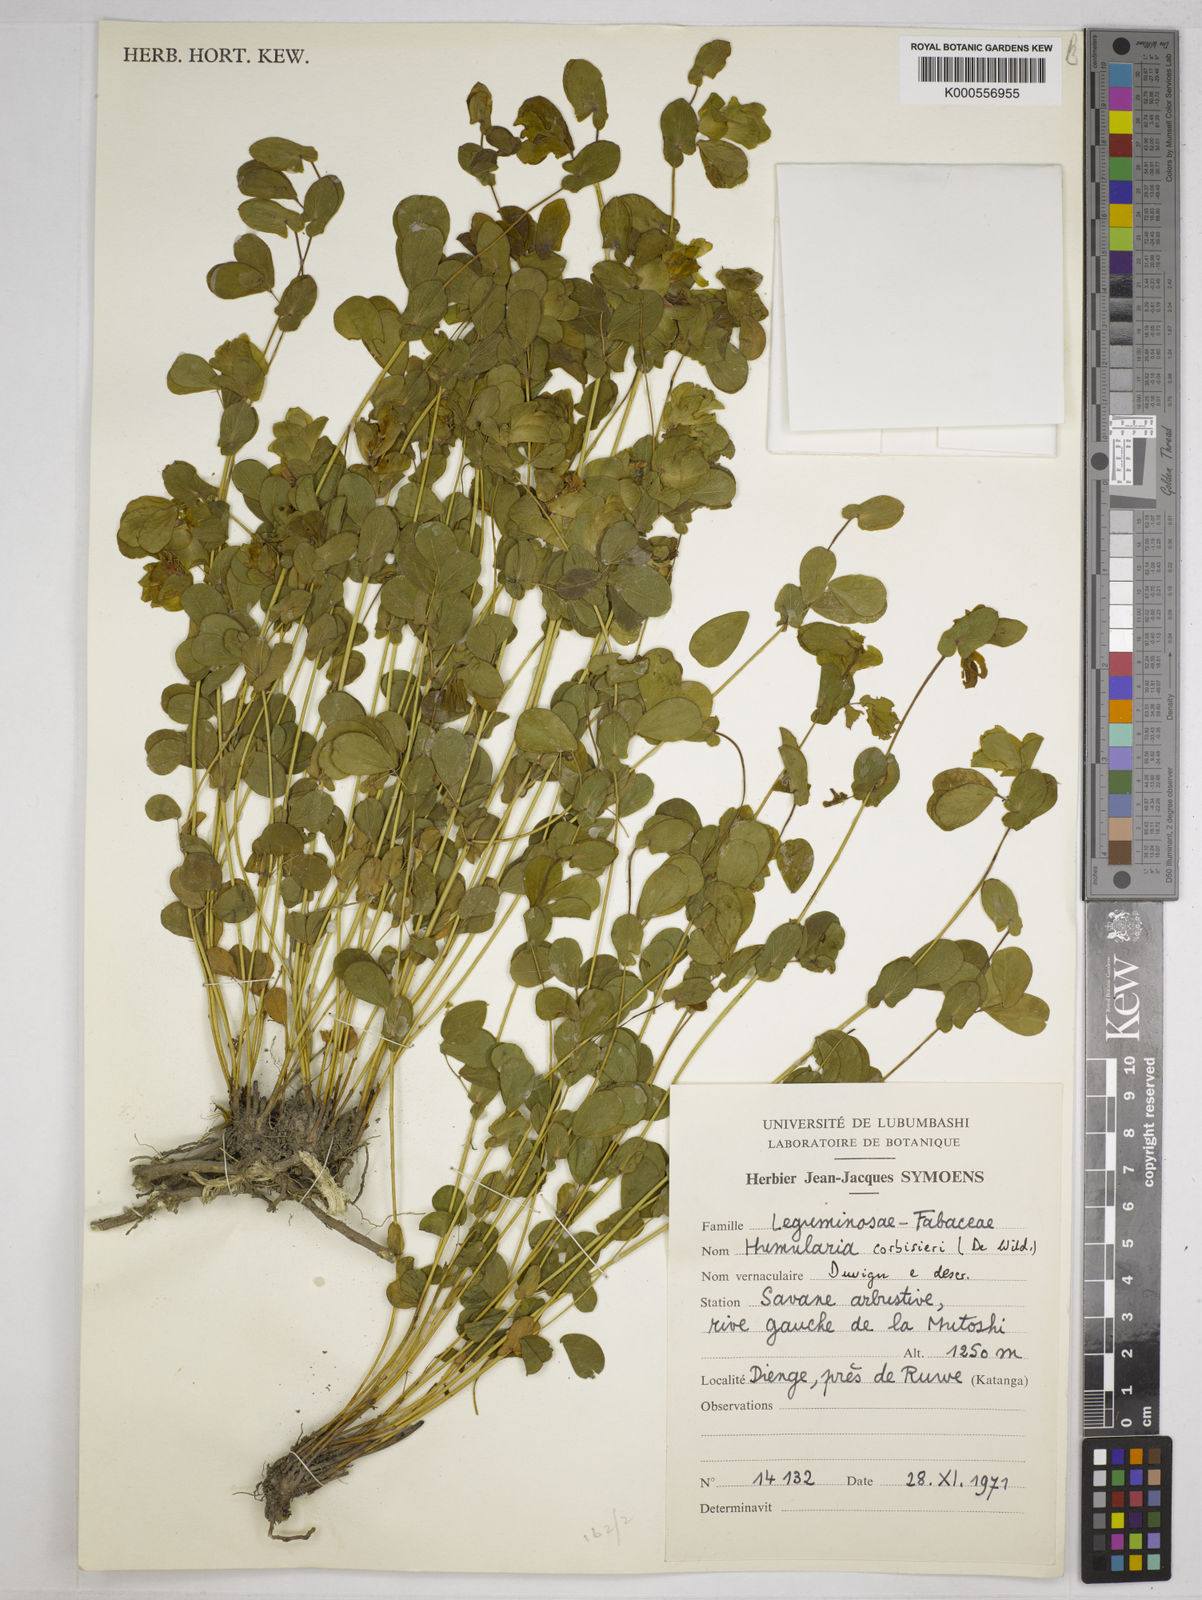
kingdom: Plantae
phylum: Tracheophyta
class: Magnoliopsida
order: Fabales
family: Fabaceae
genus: Humularia
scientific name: Humularia corbisieri
